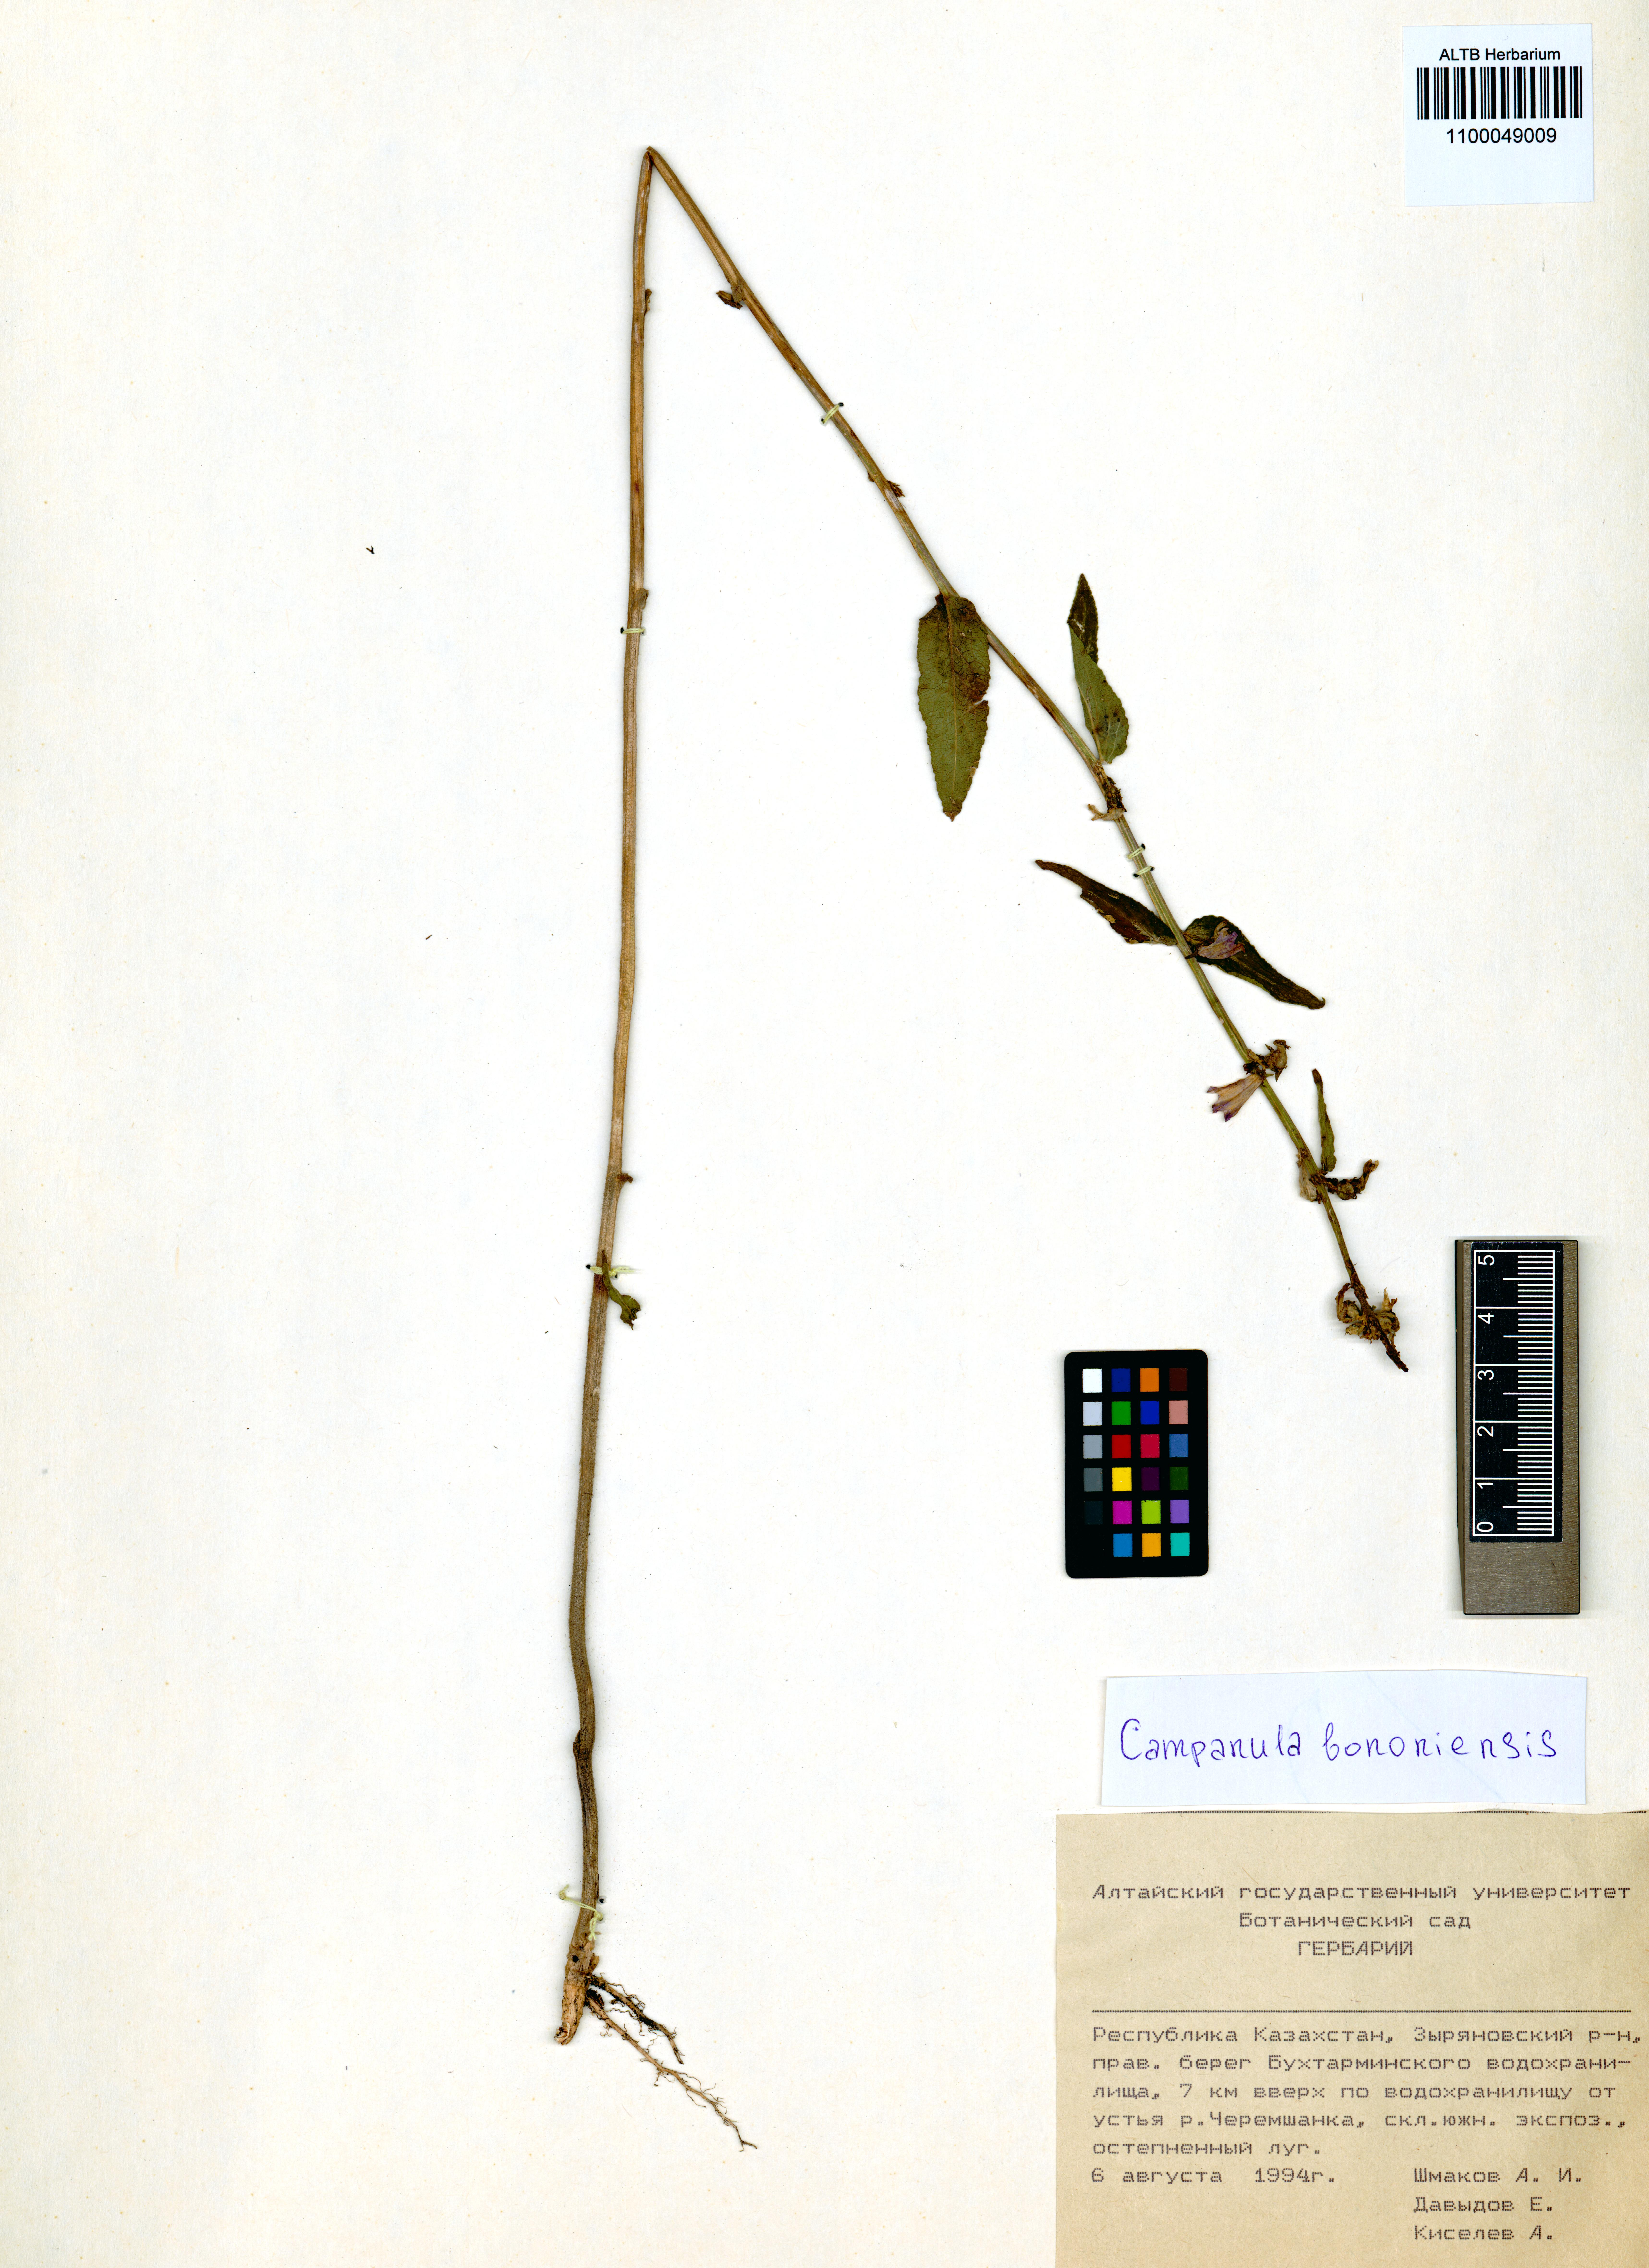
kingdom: Plantae
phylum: Tracheophyta
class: Magnoliopsida
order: Asterales
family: Campanulaceae
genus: Campanula
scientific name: Campanula bononiensis
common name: Pale bellflower
